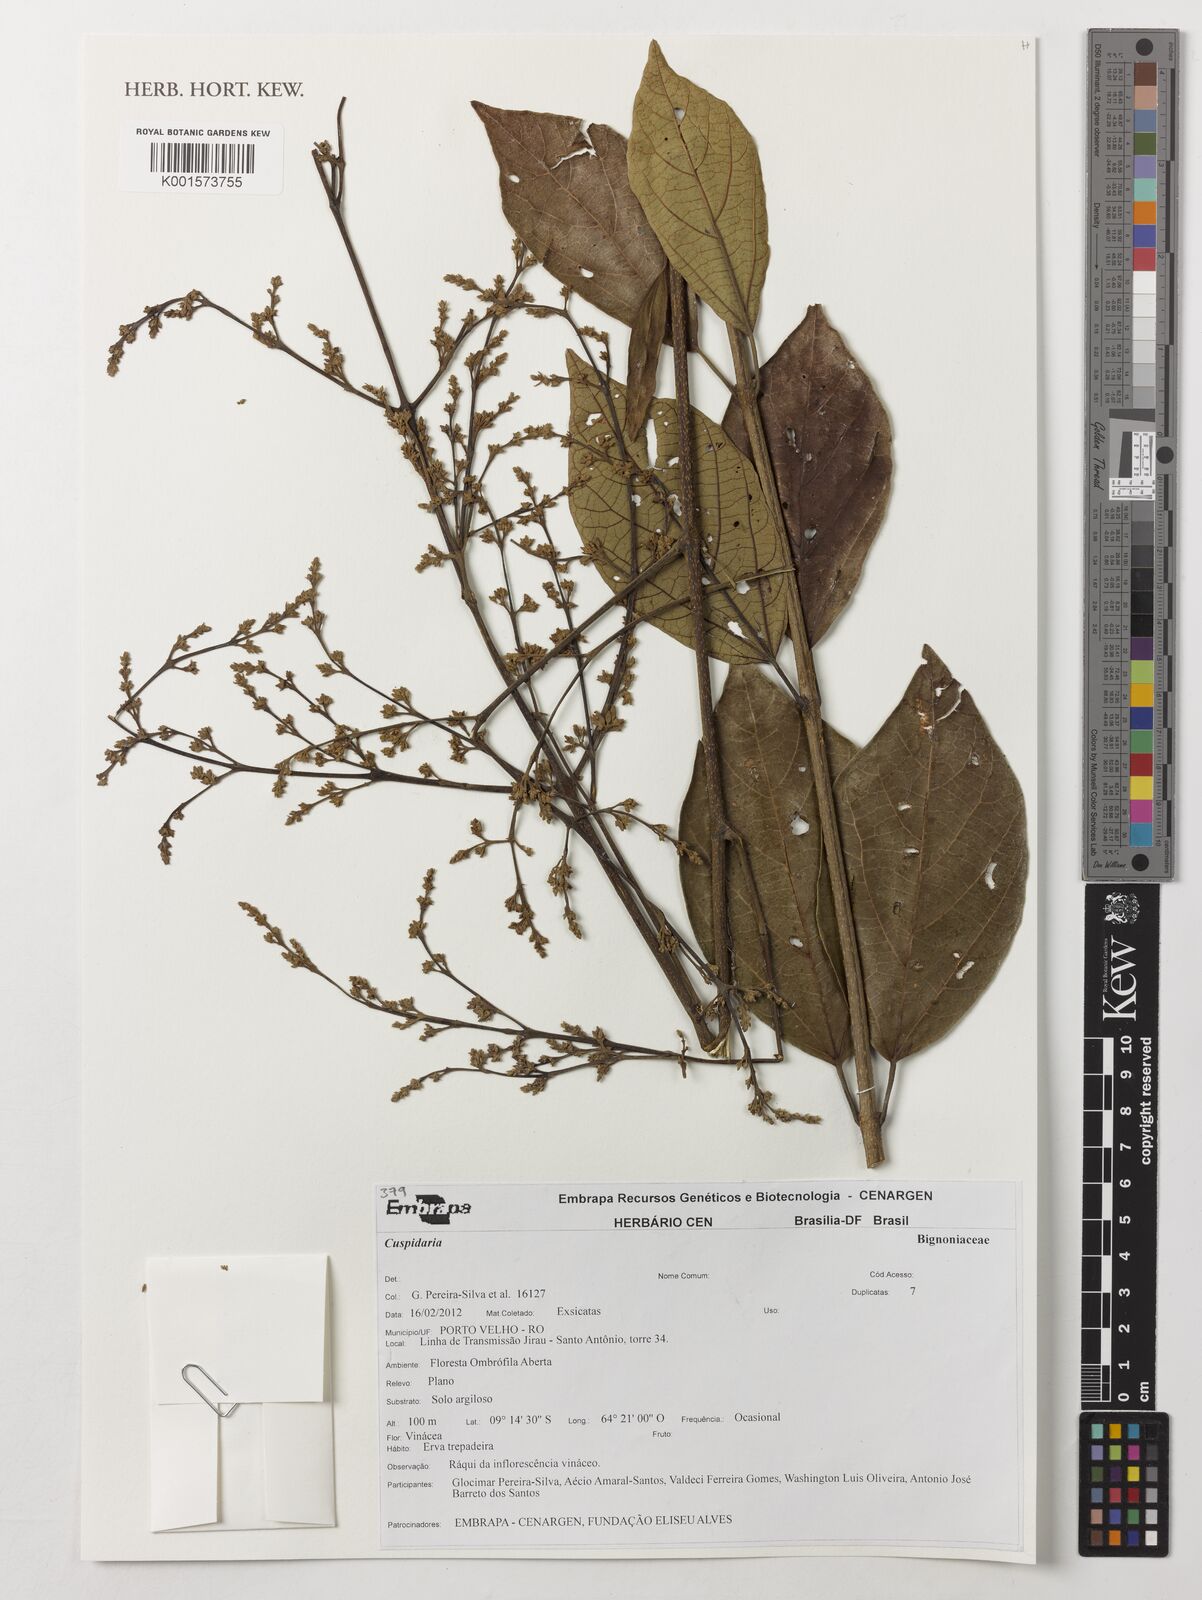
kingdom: Plantae
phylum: Tracheophyta
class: Magnoliopsida
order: Lamiales
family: Bignoniaceae
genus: Cuspidaria
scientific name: Cuspidaria
